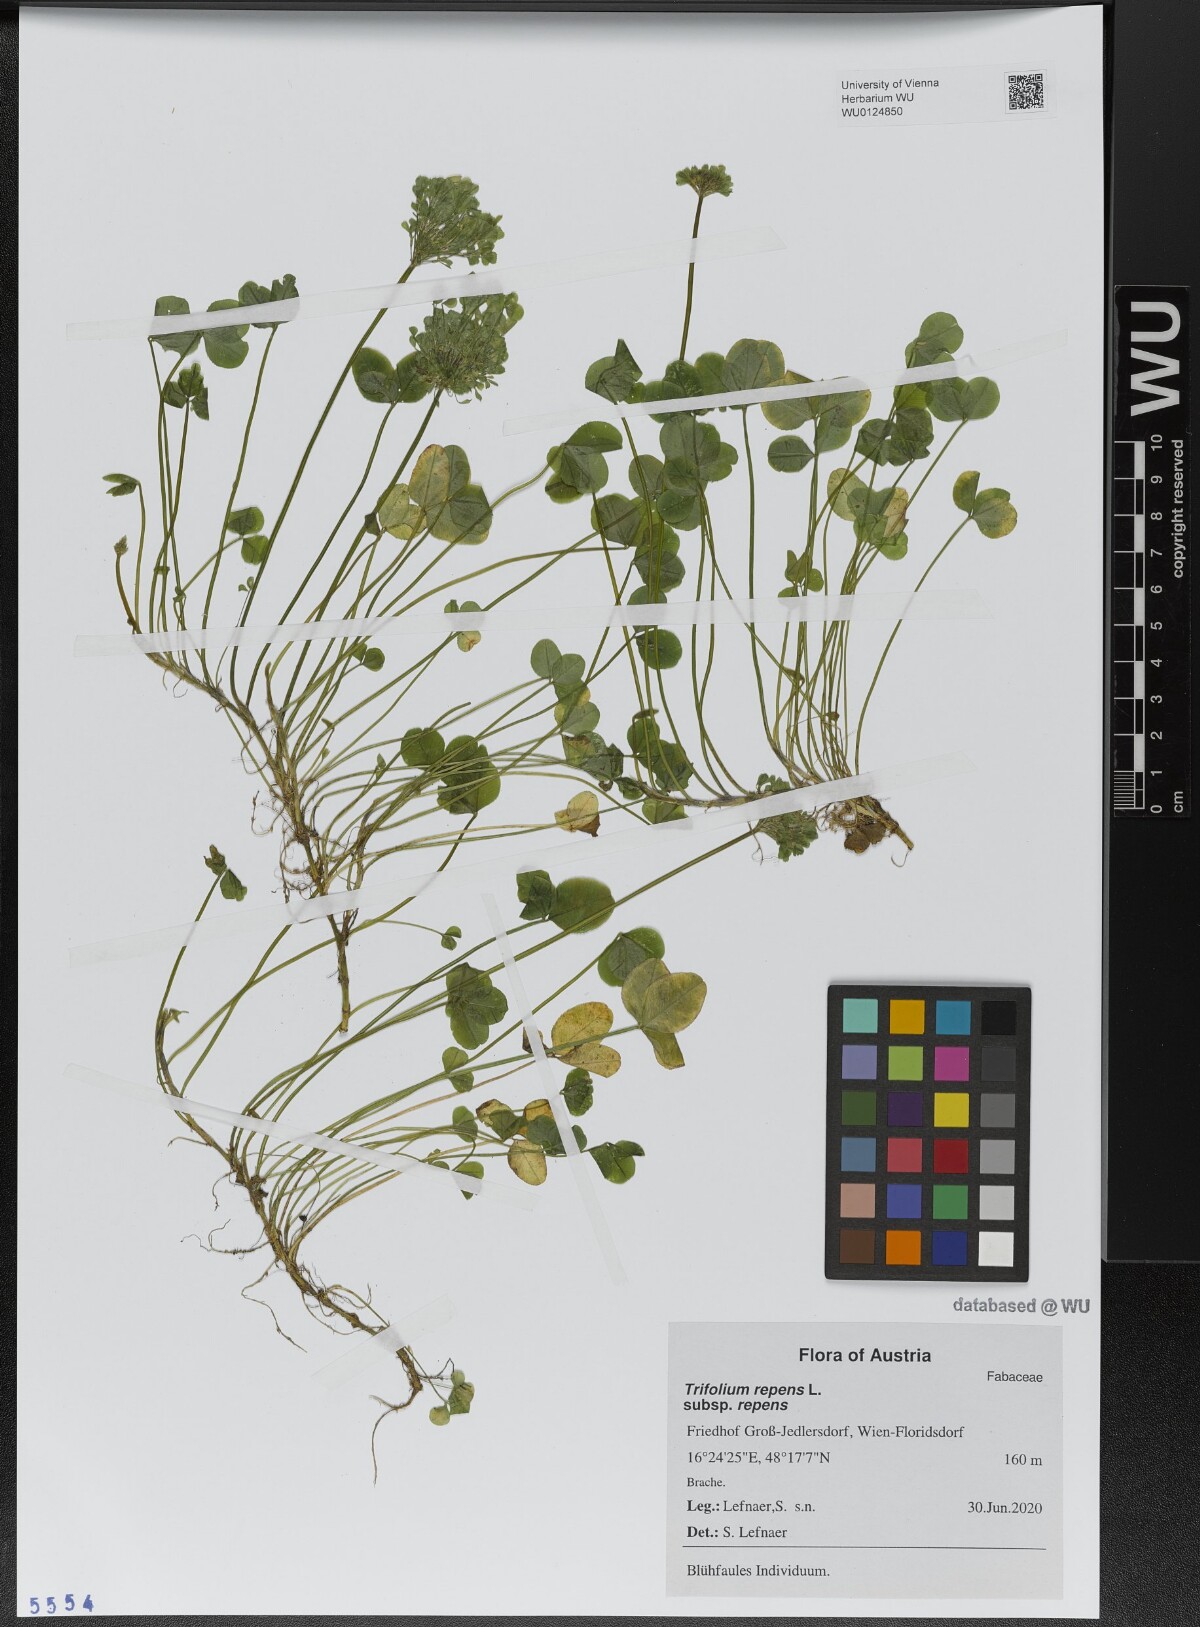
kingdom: Plantae
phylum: Tracheophyta
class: Magnoliopsida
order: Fabales
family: Fabaceae
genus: Trifolium
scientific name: Trifolium repens
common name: White clover
